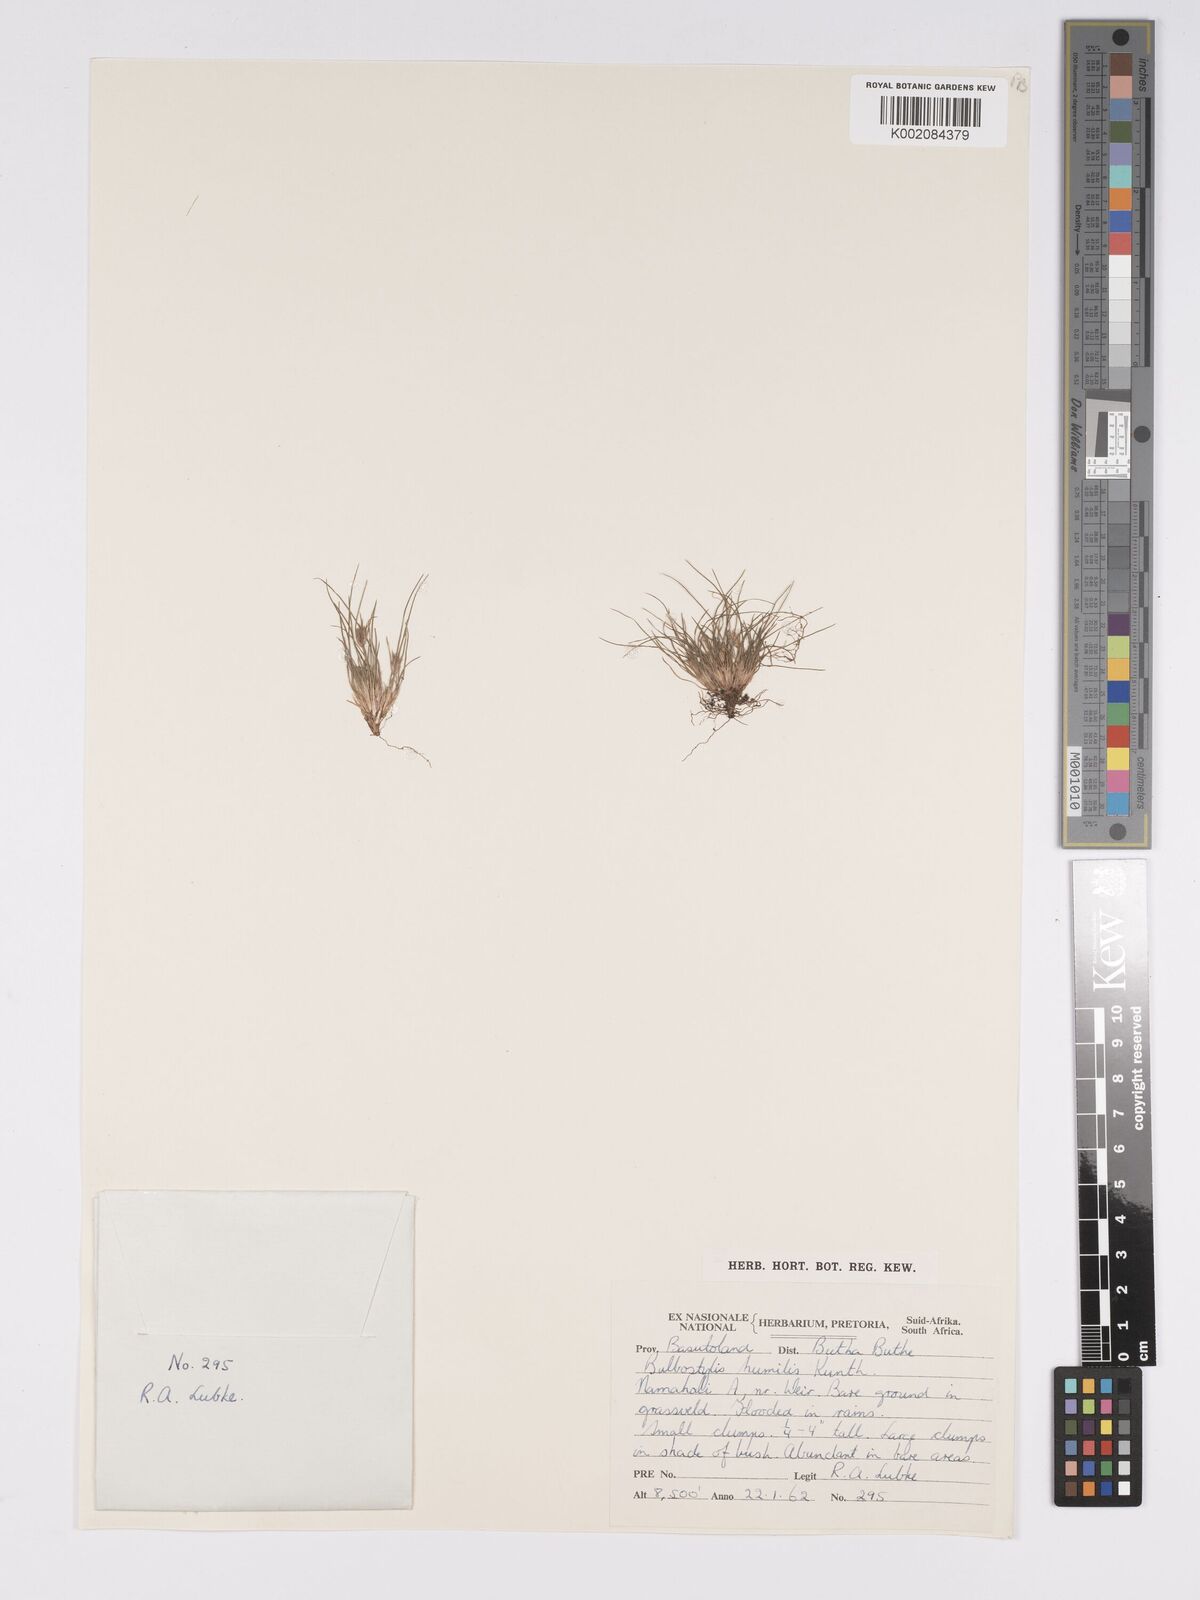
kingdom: Plantae
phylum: Tracheophyta
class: Liliopsida
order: Poales
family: Cyperaceae
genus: Bulbostylis
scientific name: Bulbostylis humilis
